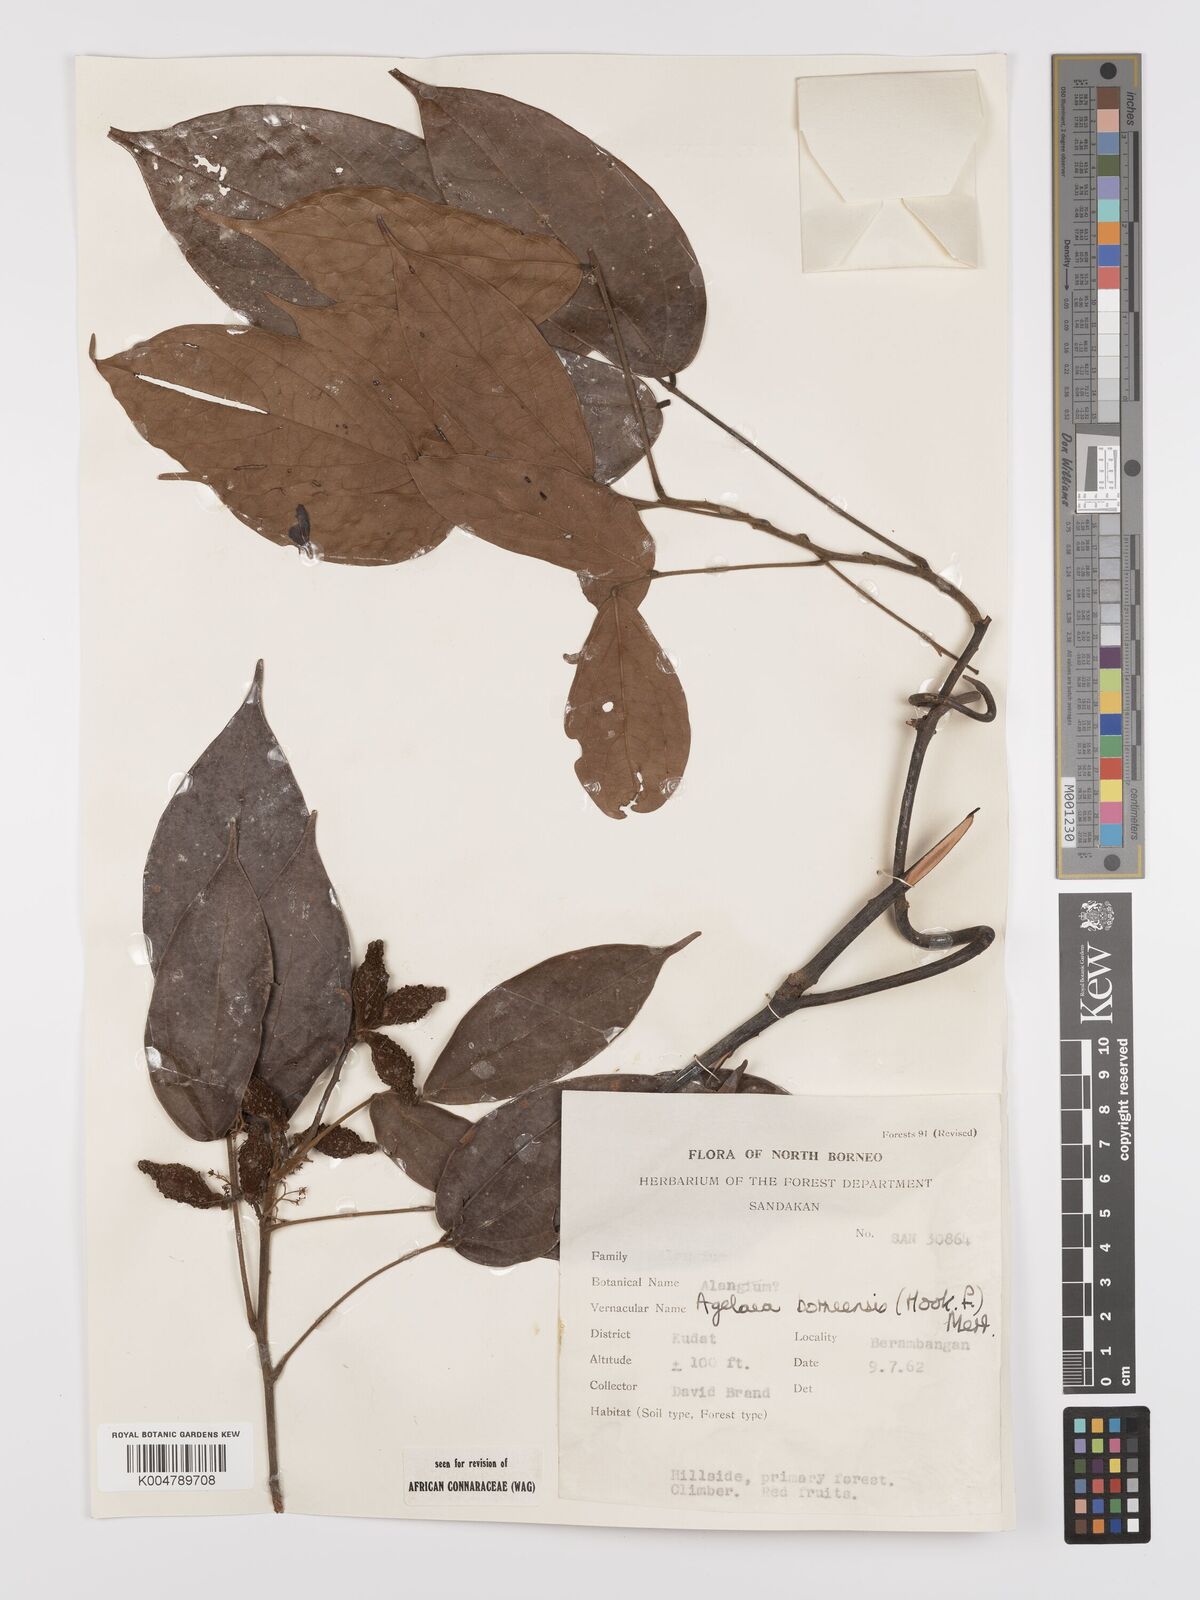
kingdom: Plantae
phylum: Tracheophyta
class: Magnoliopsida
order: Oxalidales
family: Connaraceae
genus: Agelaea
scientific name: Agelaea borneensis
